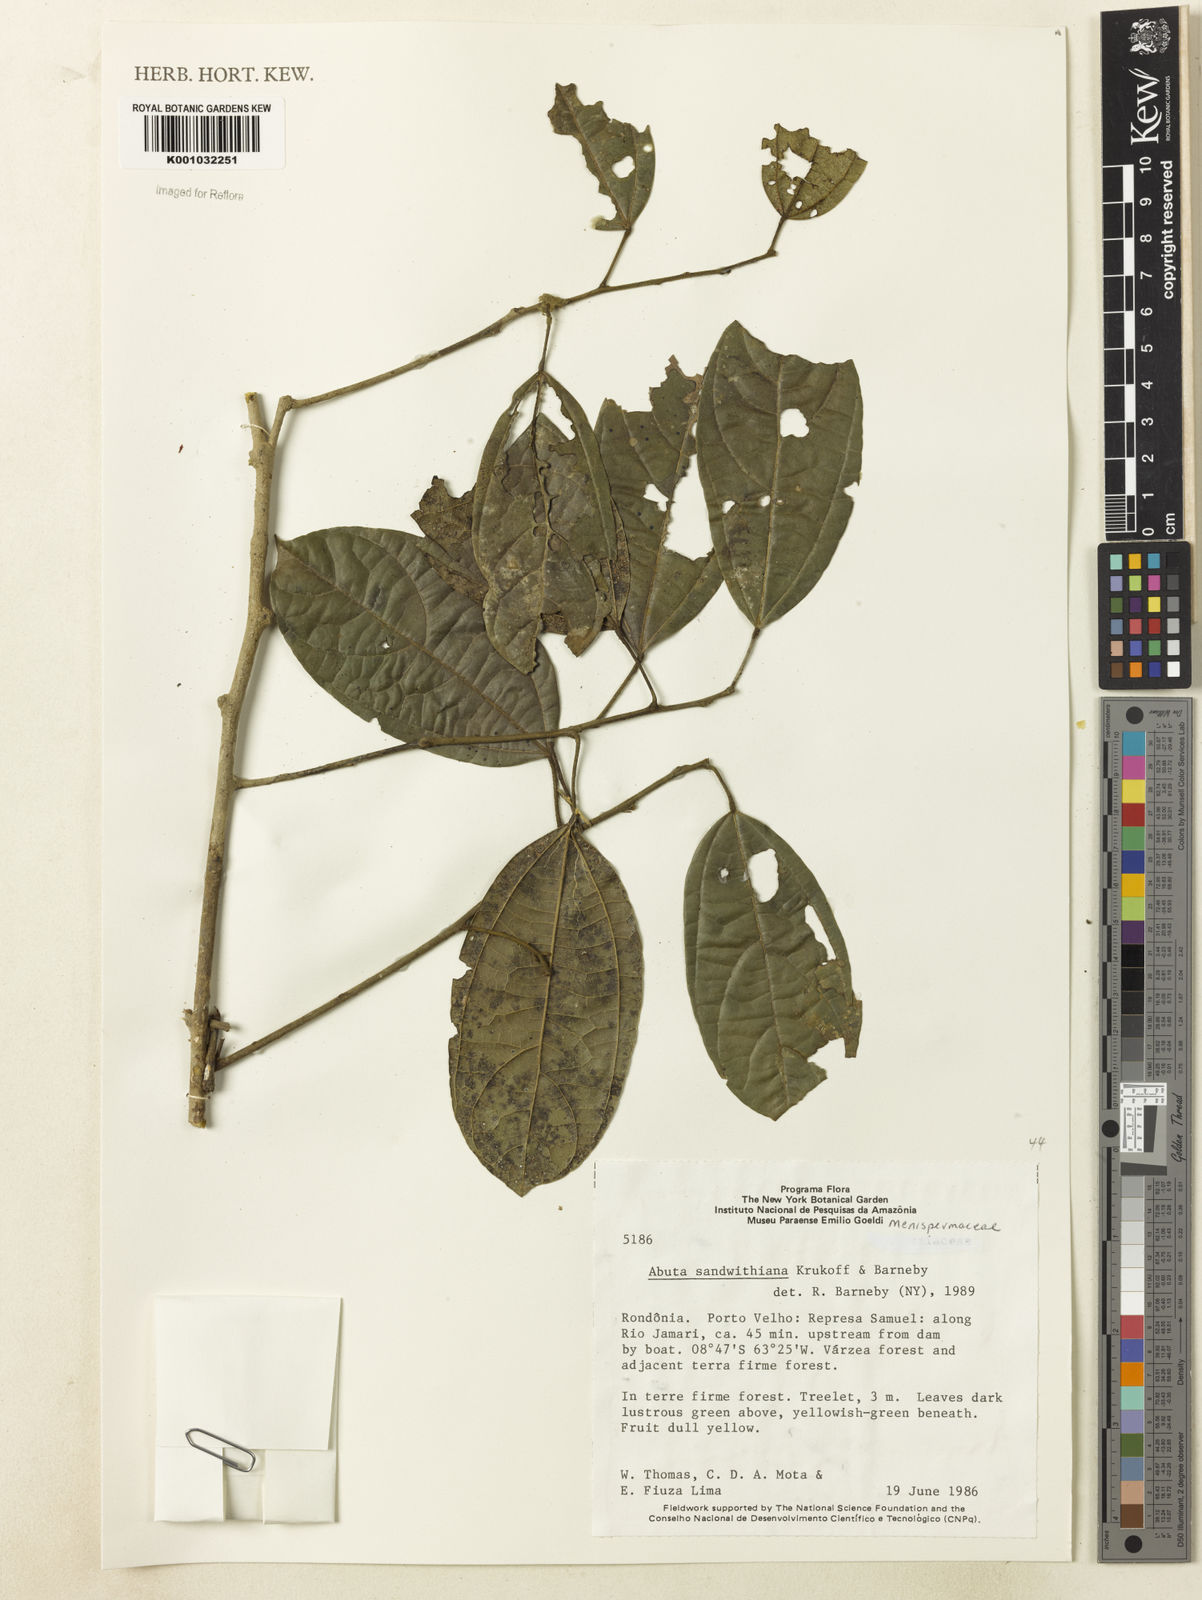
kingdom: Plantae
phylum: Tracheophyta
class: Magnoliopsida
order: Ranunculales
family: Menispermaceae
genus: Abuta
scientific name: Abuta sandwithiana
